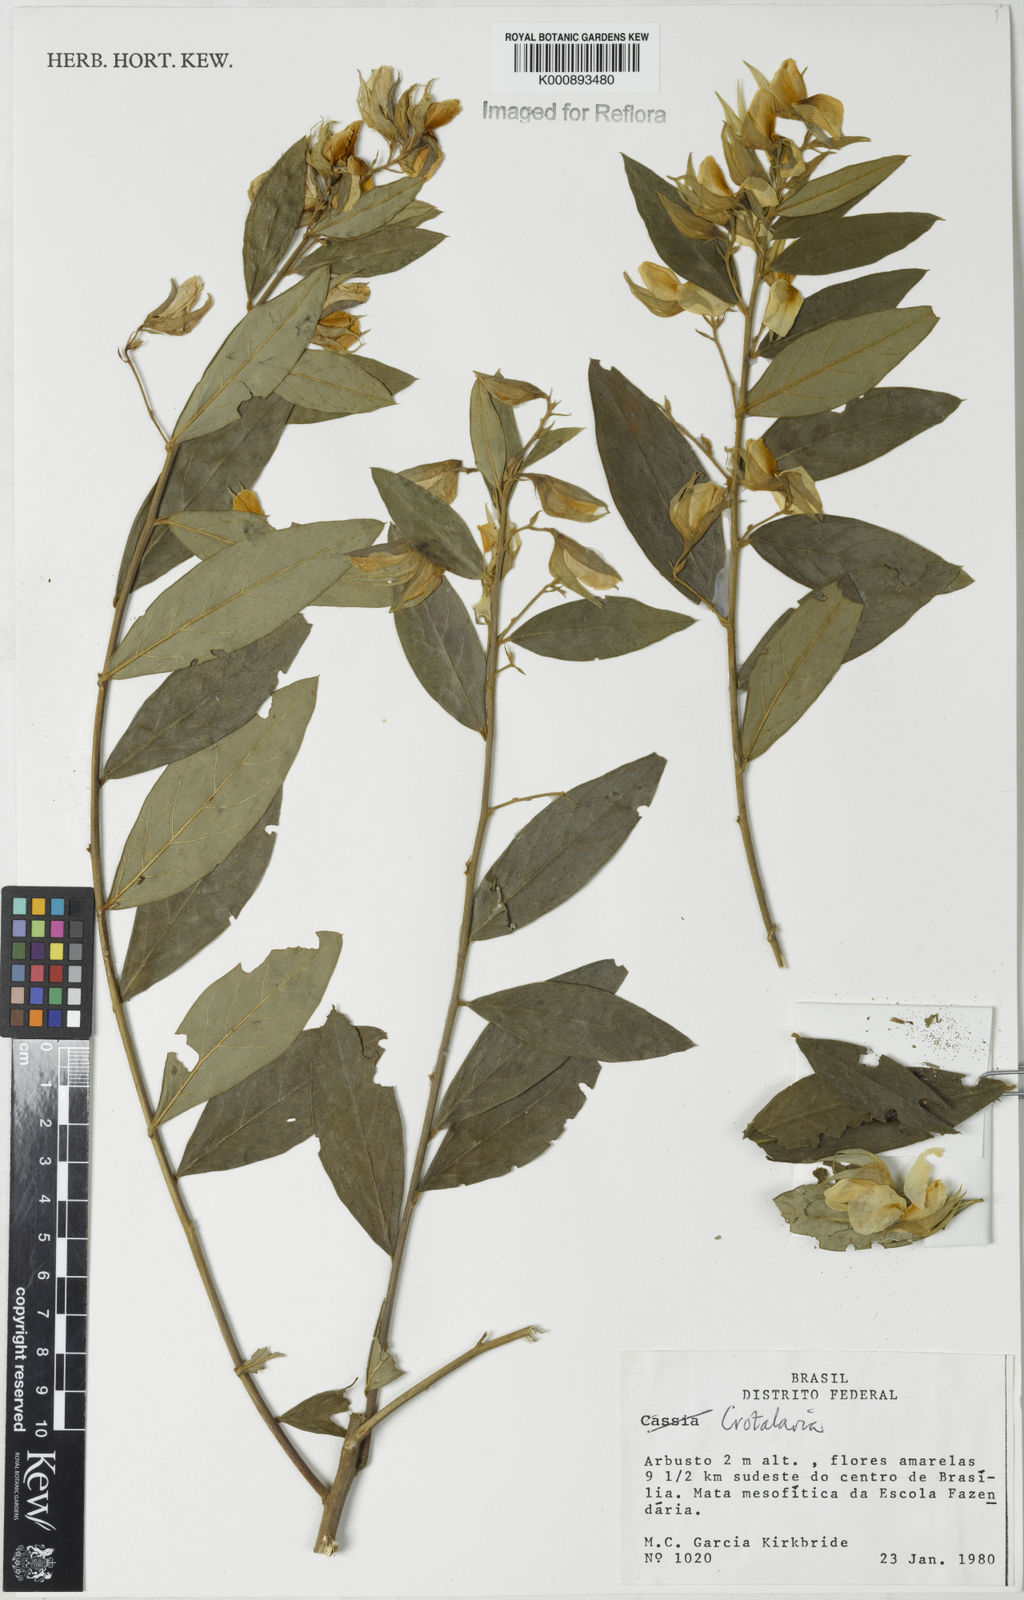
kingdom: Plantae
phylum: Tracheophyta
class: Magnoliopsida
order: Fabales
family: Fabaceae
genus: Crotalaria
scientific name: Crotalaria grandiflora
